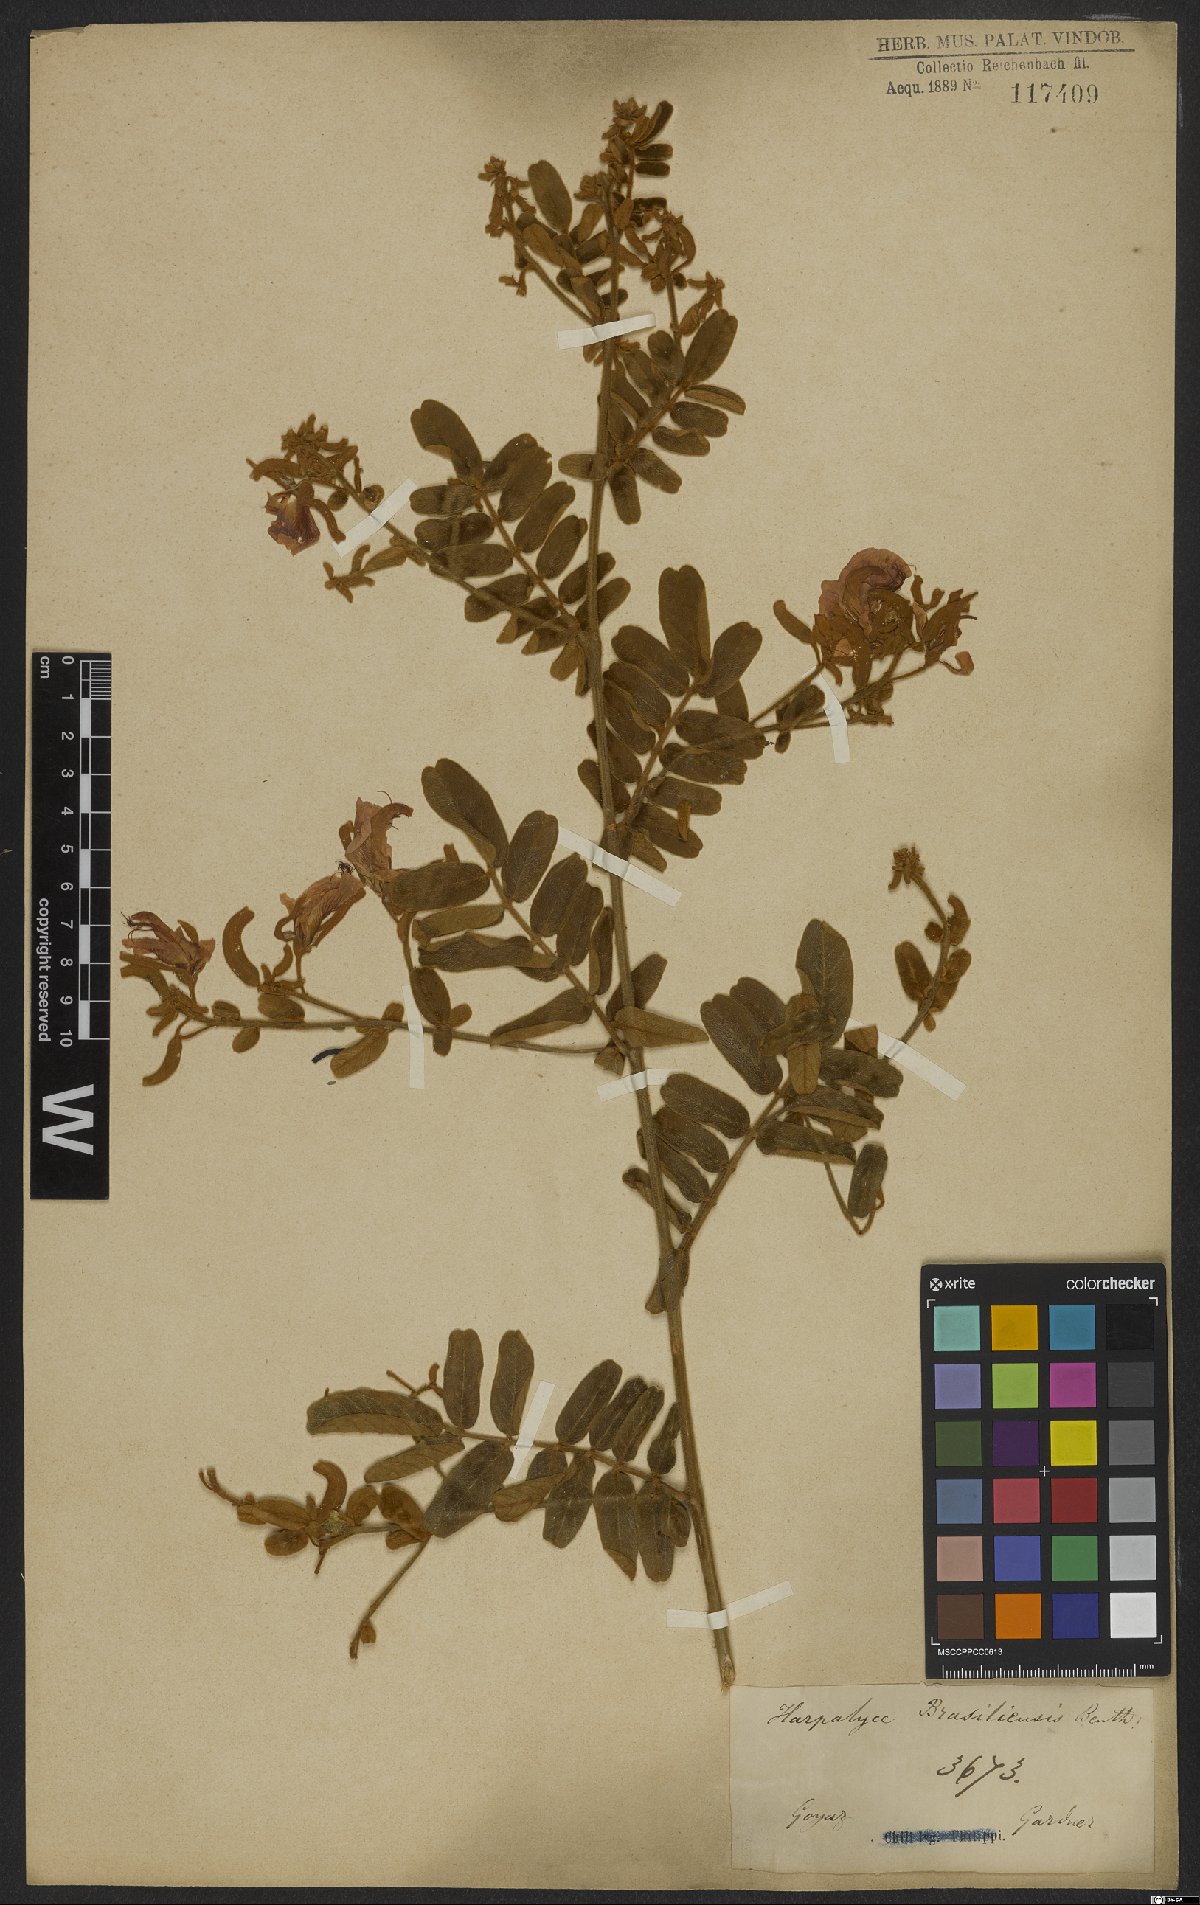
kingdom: Plantae
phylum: Tracheophyta
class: Magnoliopsida
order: Fabales
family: Fabaceae
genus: Harpalyce
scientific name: Harpalyce brasiliana
